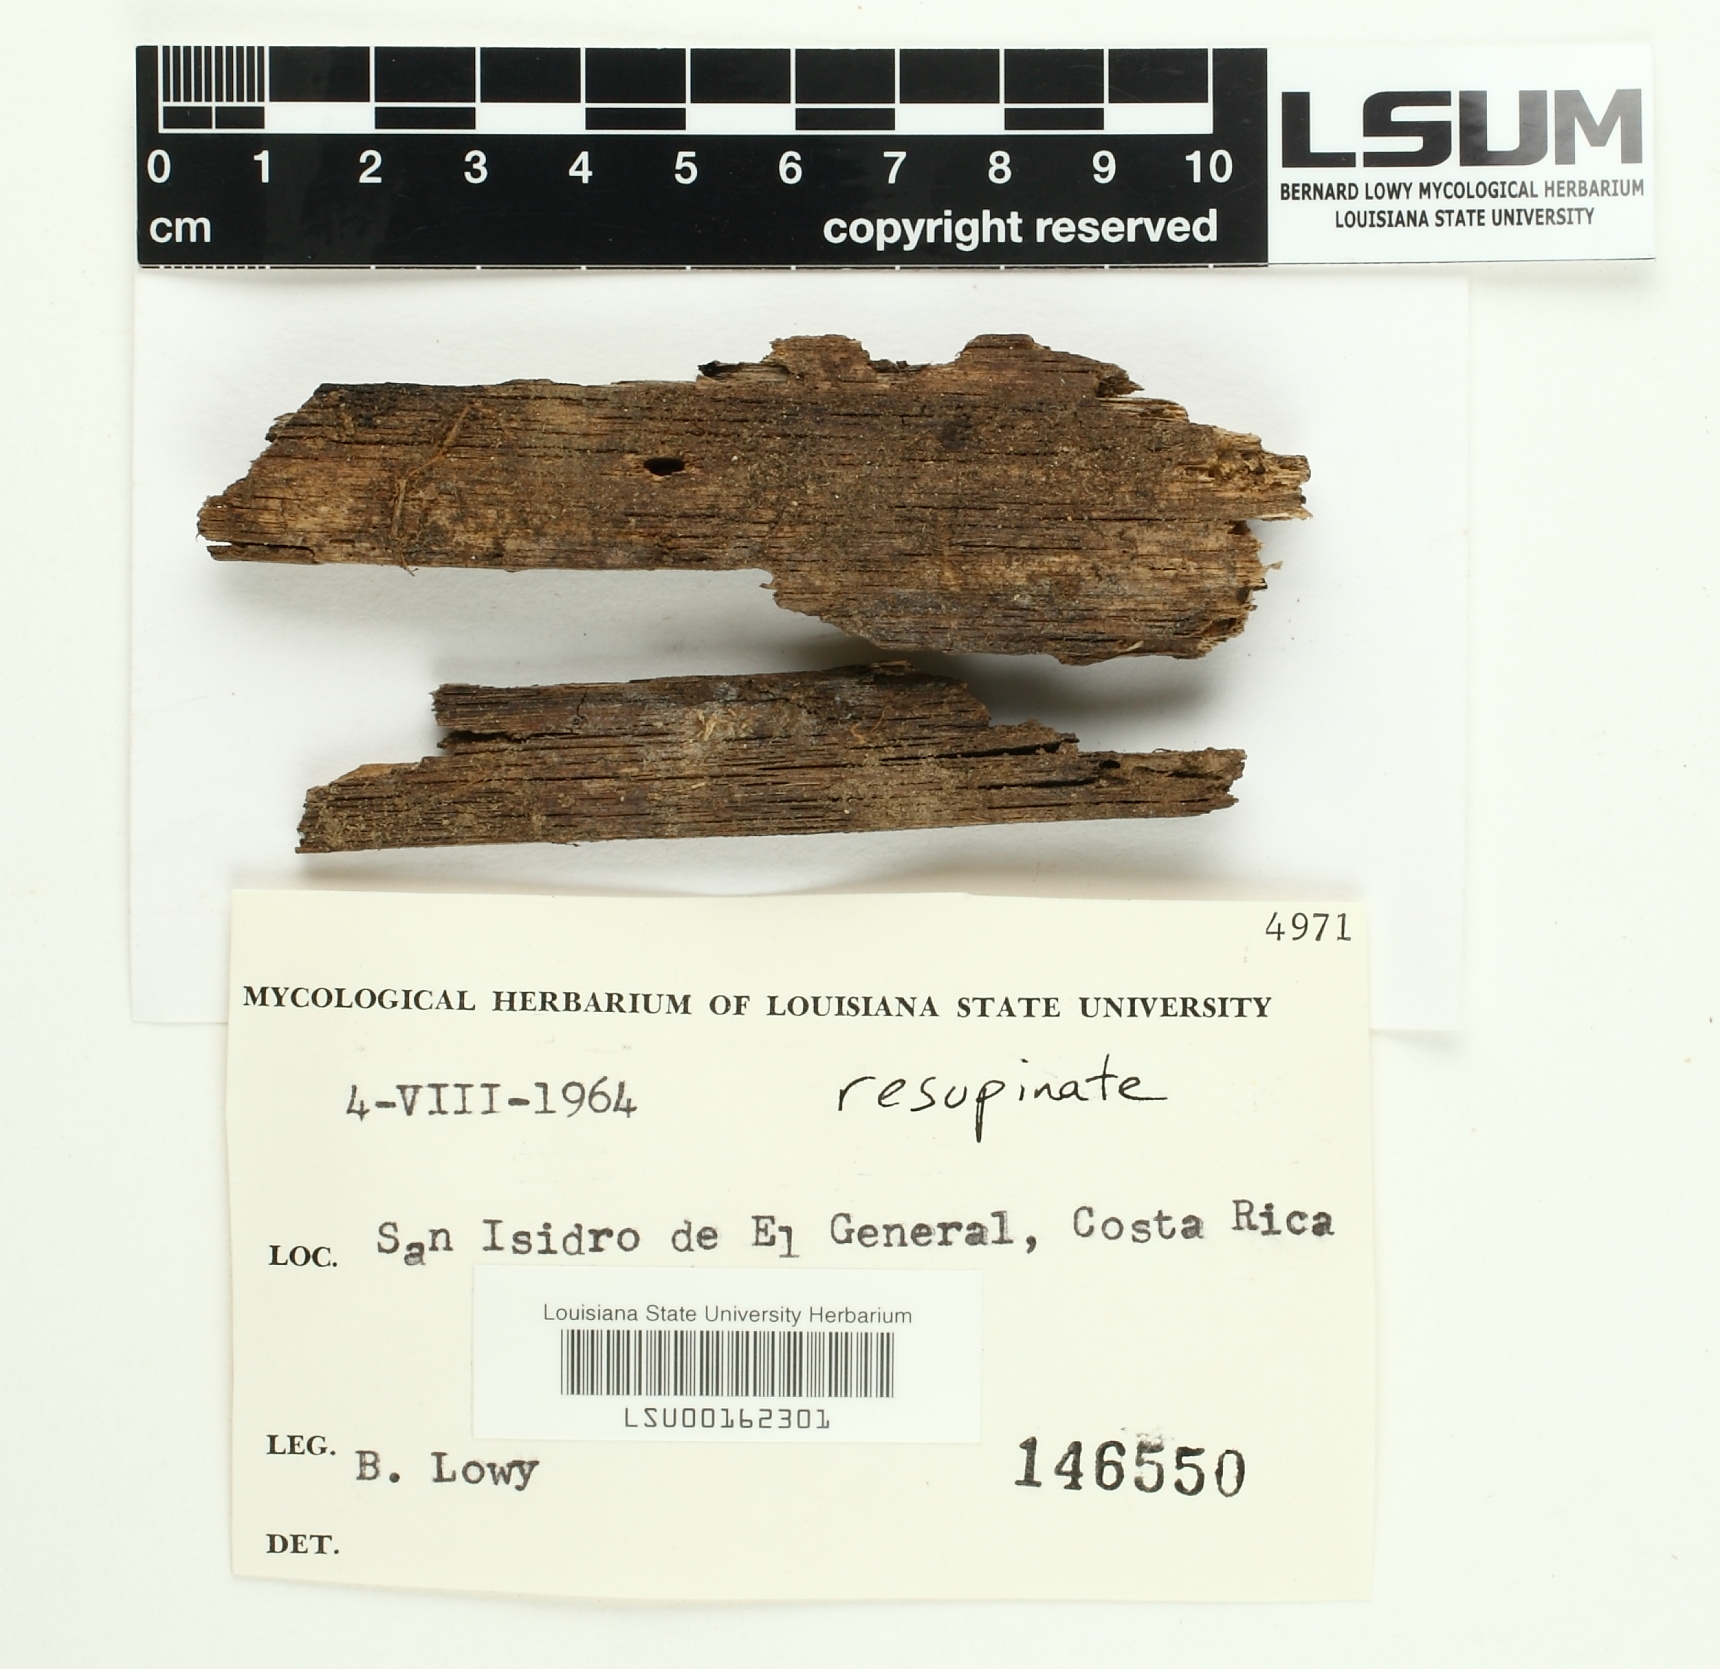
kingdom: Fungi
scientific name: Fungi
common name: Fungi
